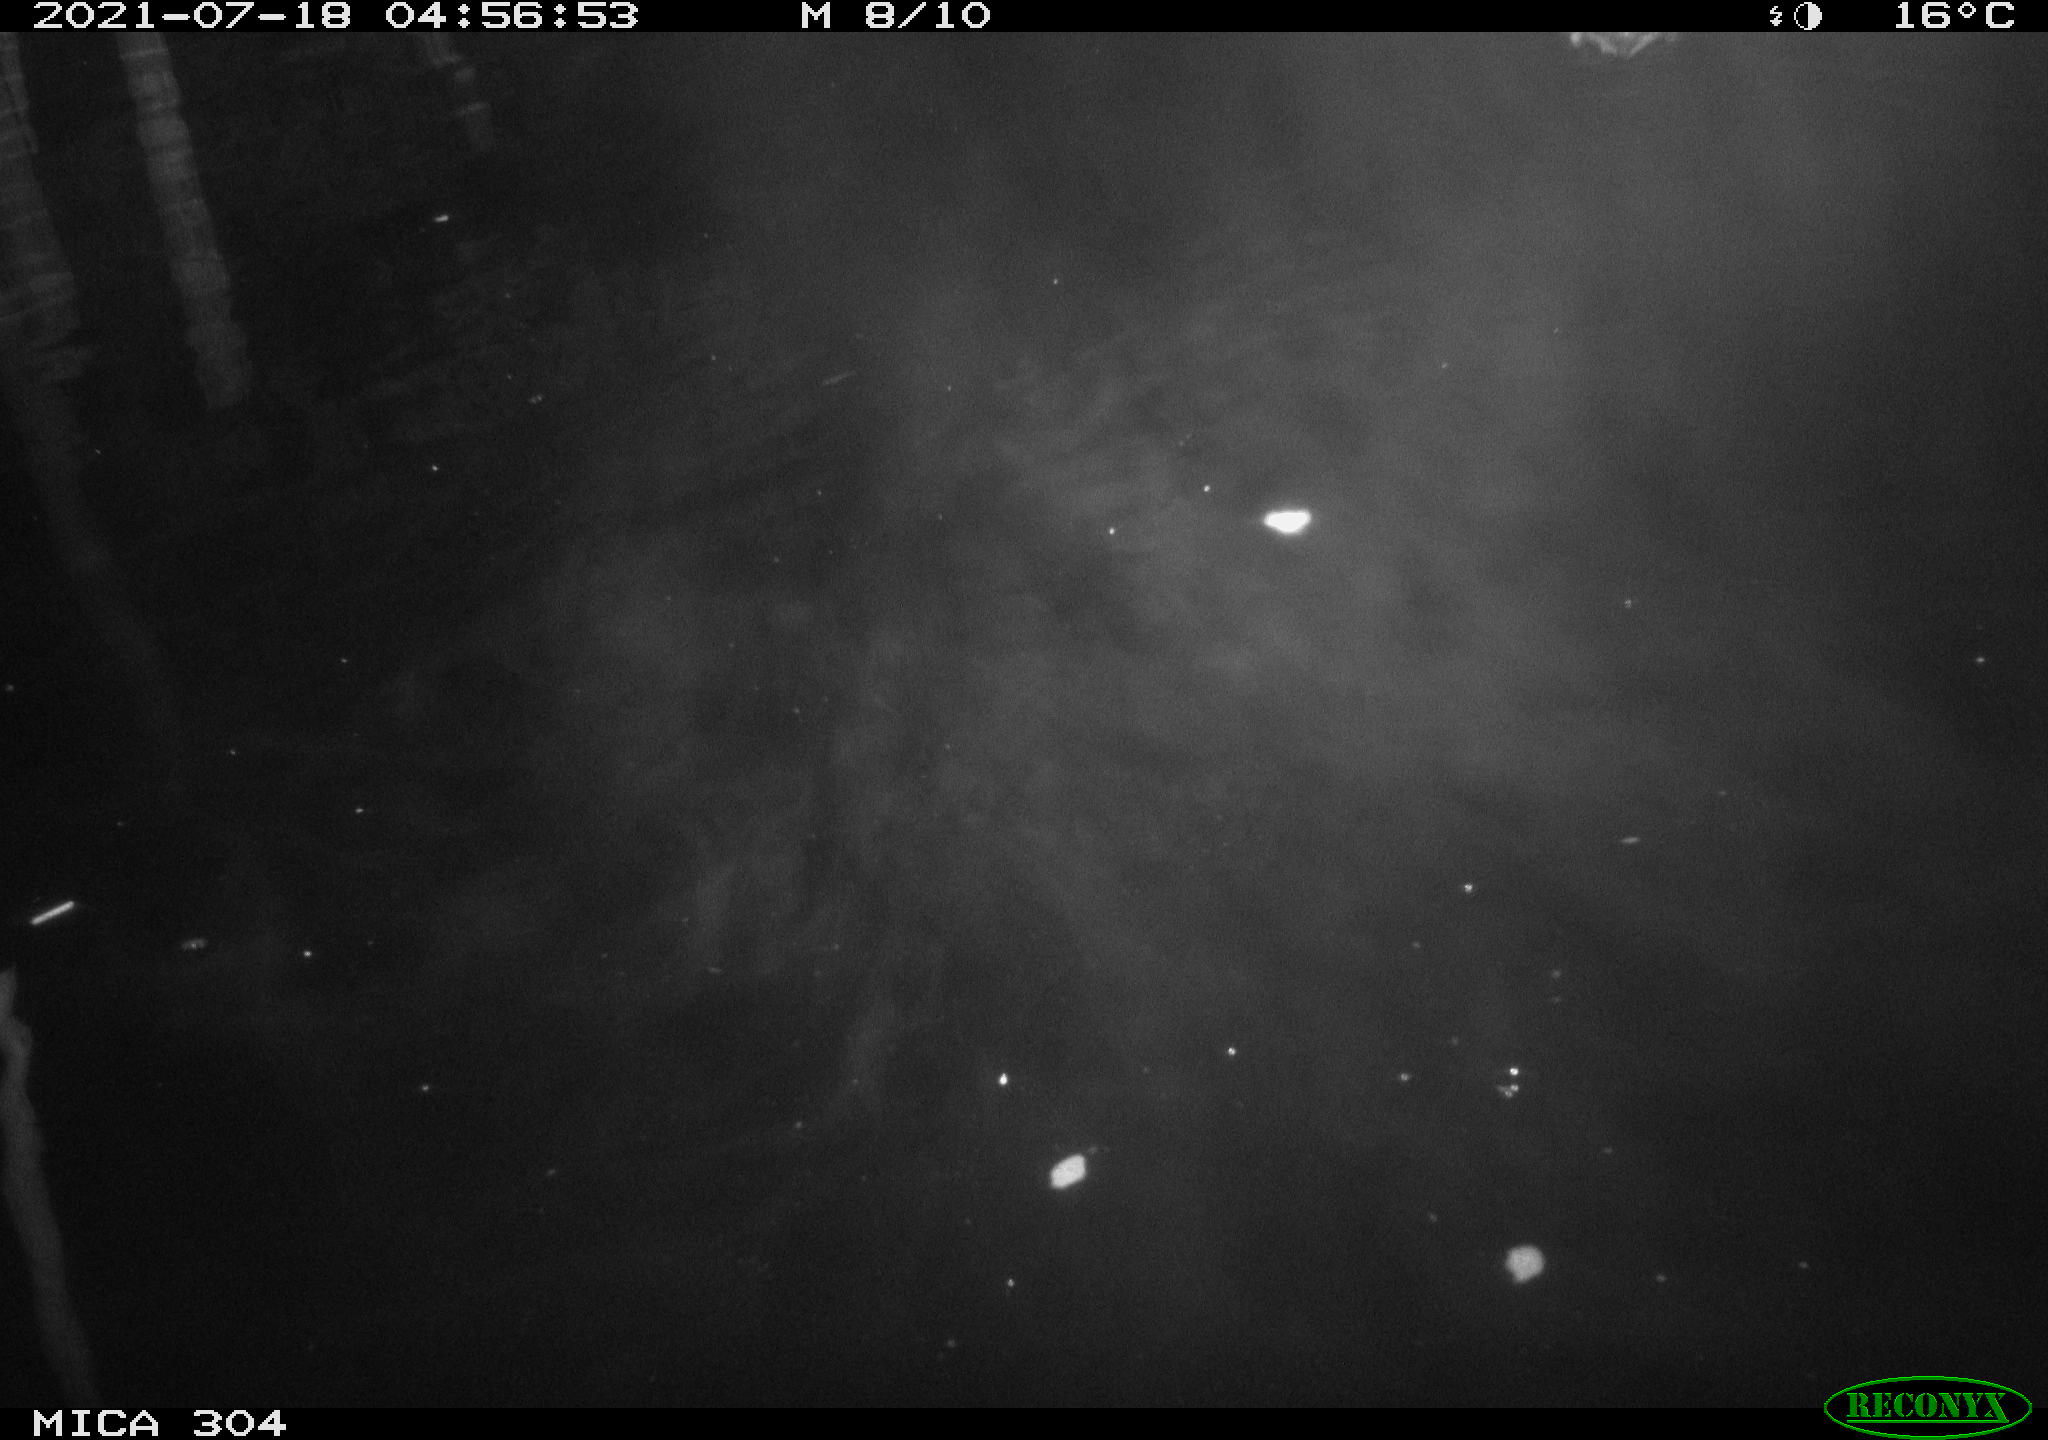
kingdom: Animalia
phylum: Chordata
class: Aves
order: Anseriformes
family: Anatidae
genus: Anas
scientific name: Anas platyrhynchos
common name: Mallard
